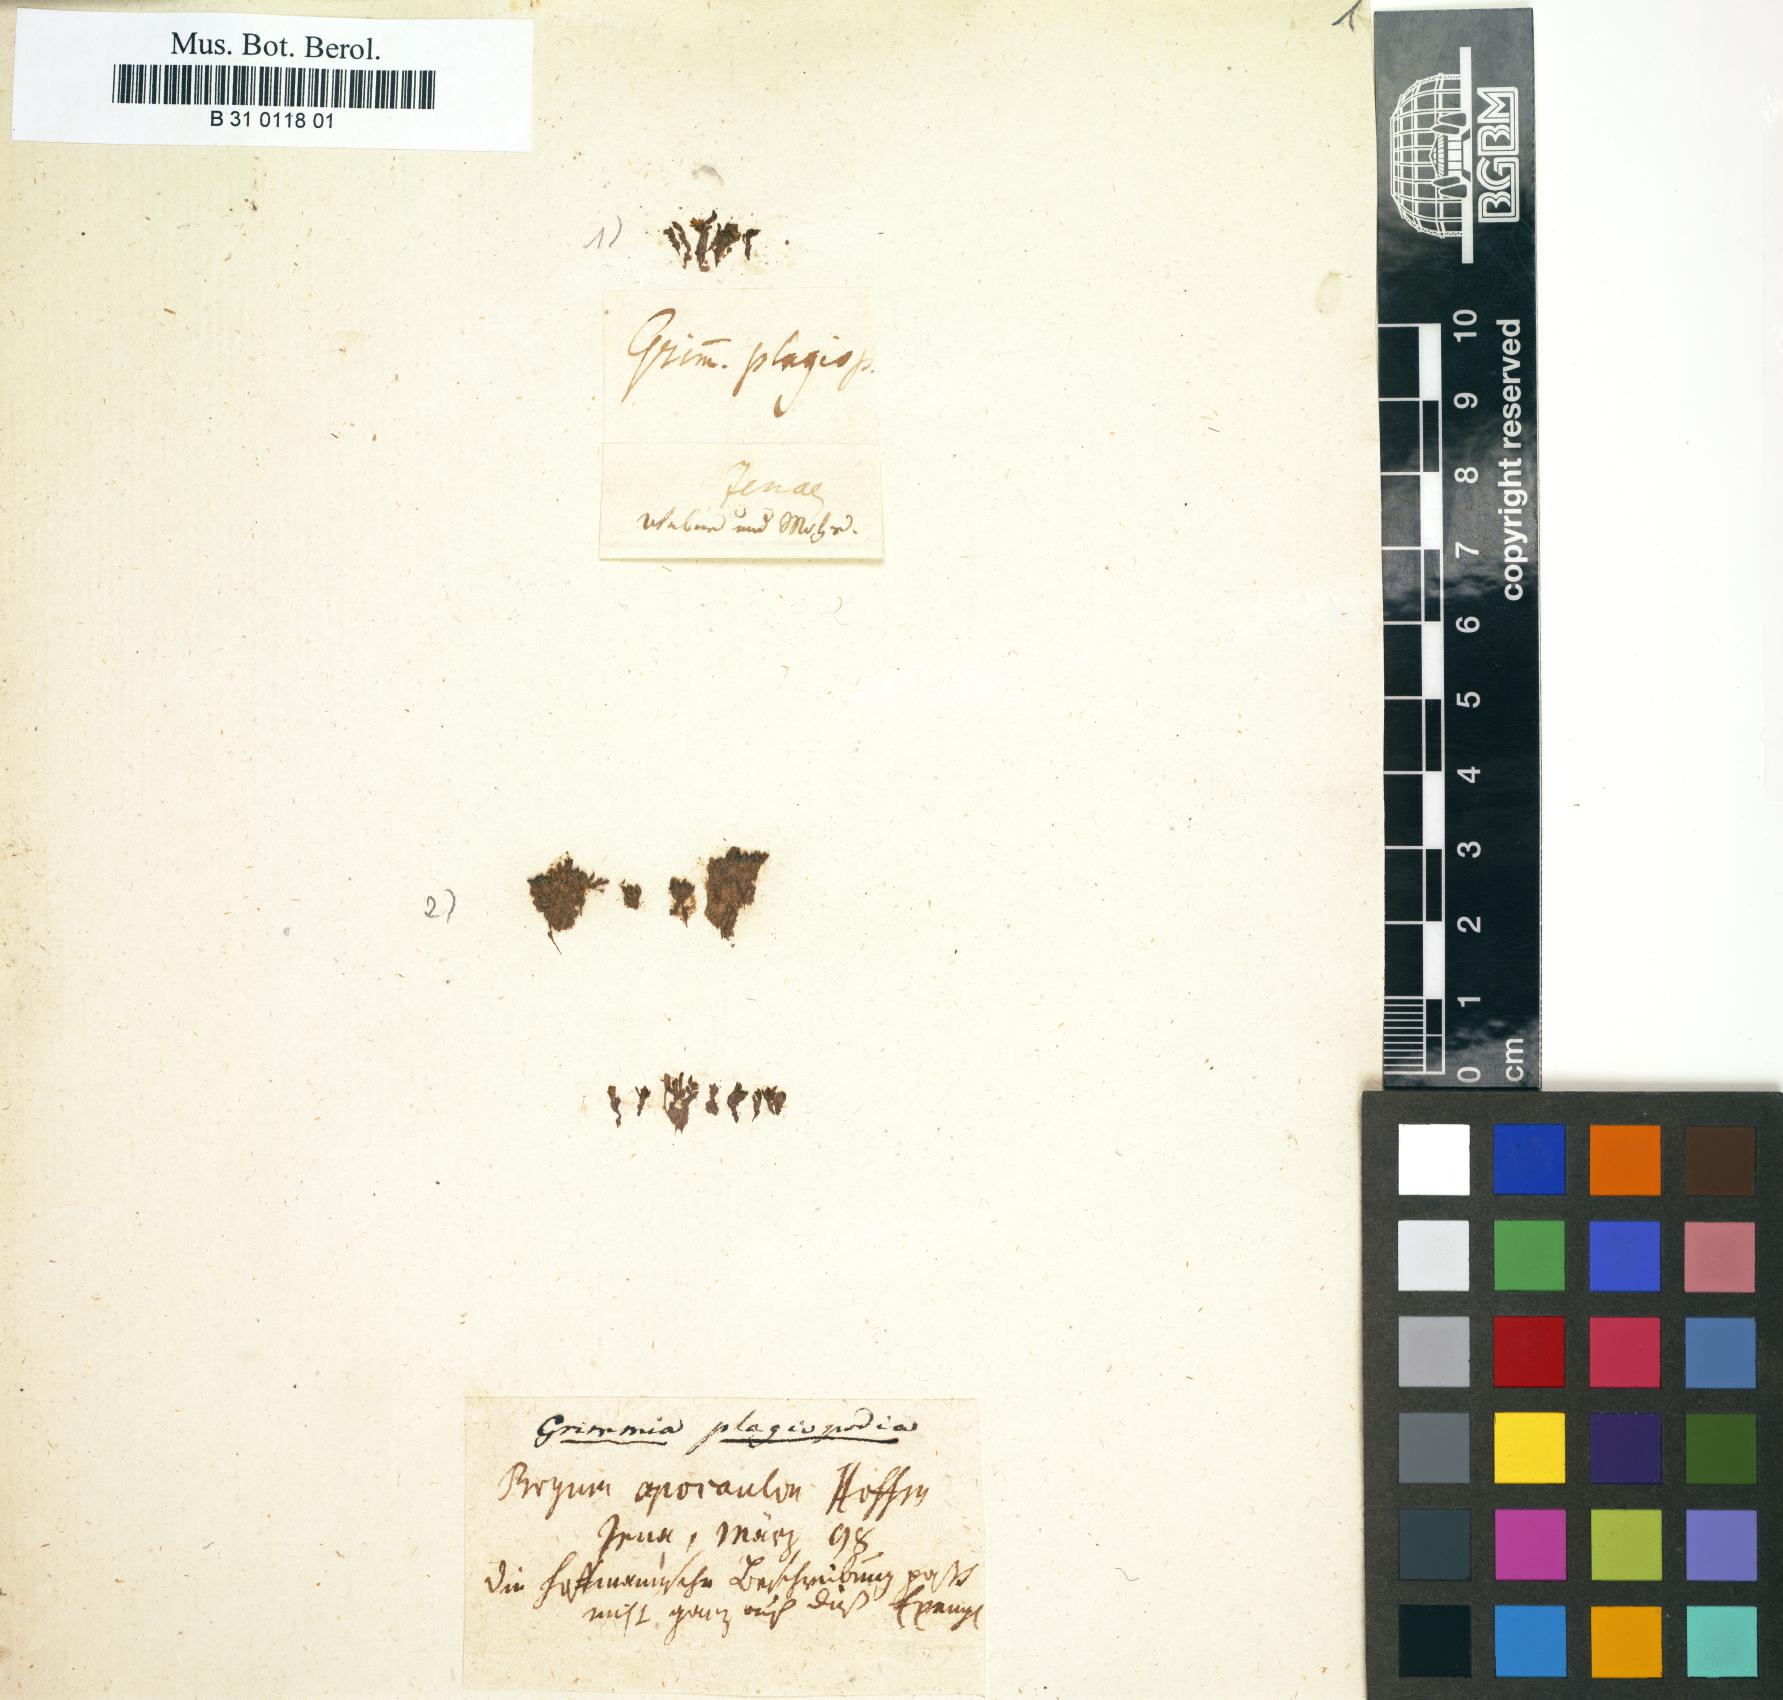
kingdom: Plantae
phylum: Bryophyta
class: Bryopsida
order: Grimmiales
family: Grimmiaceae
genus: Grimmia
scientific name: Grimmia plagiopodia
